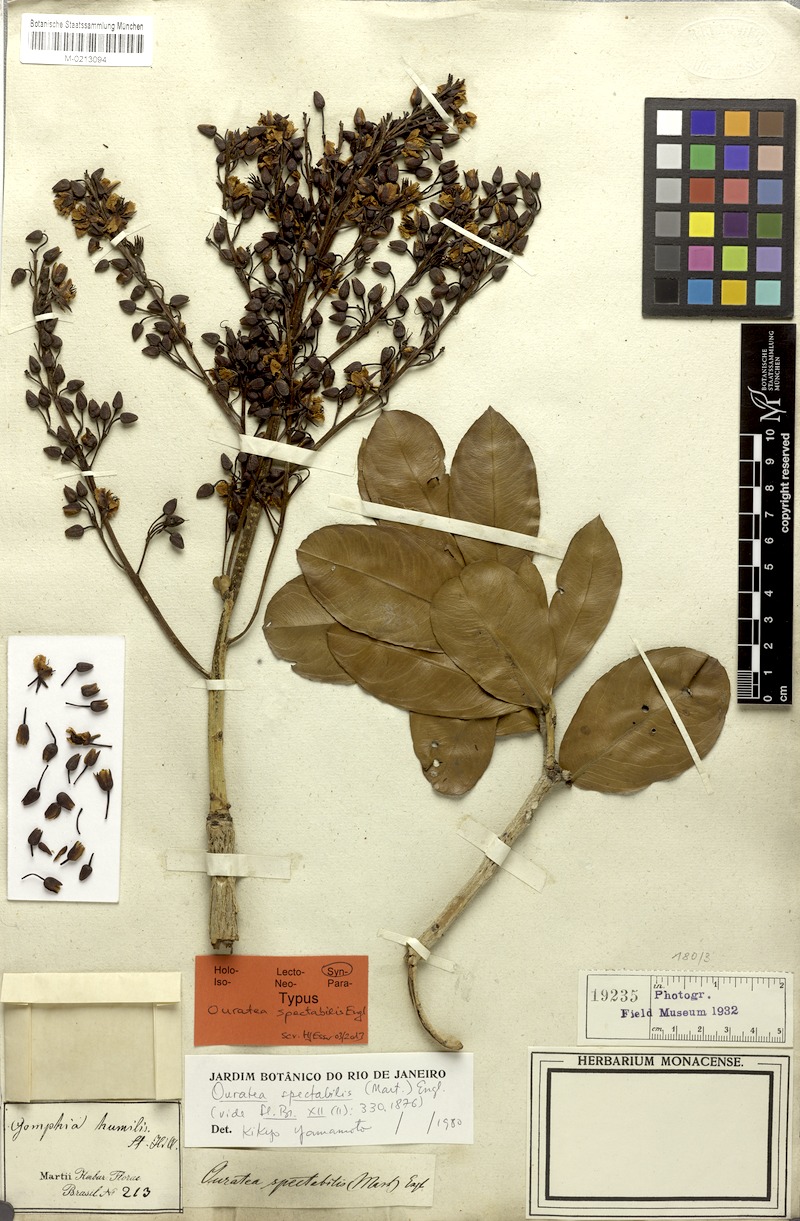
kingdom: Plantae
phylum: Tracheophyta
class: Magnoliopsida
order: Malpighiales
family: Ochnaceae
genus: Ouratea
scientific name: Ouratea spectabilis
